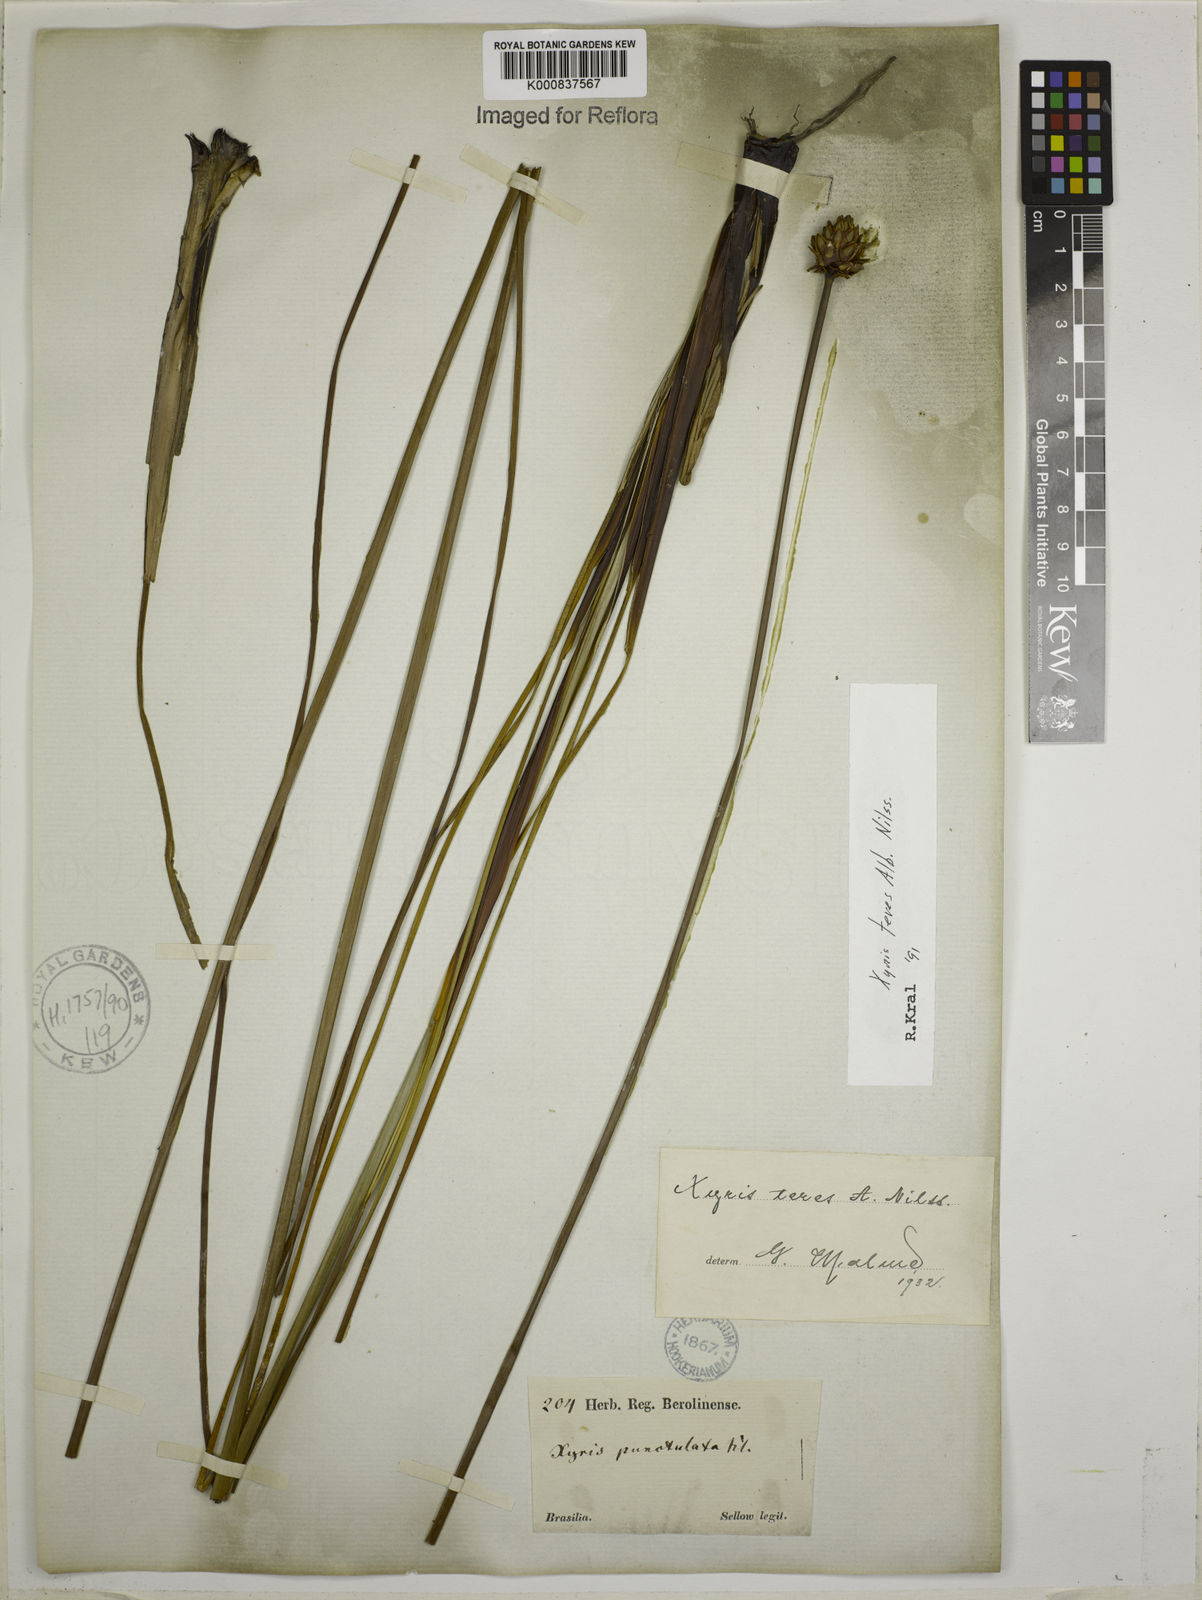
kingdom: Plantae
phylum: Tracheophyta
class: Liliopsida
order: Poales
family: Xyridaceae
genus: Xyris
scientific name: Xyris teres
